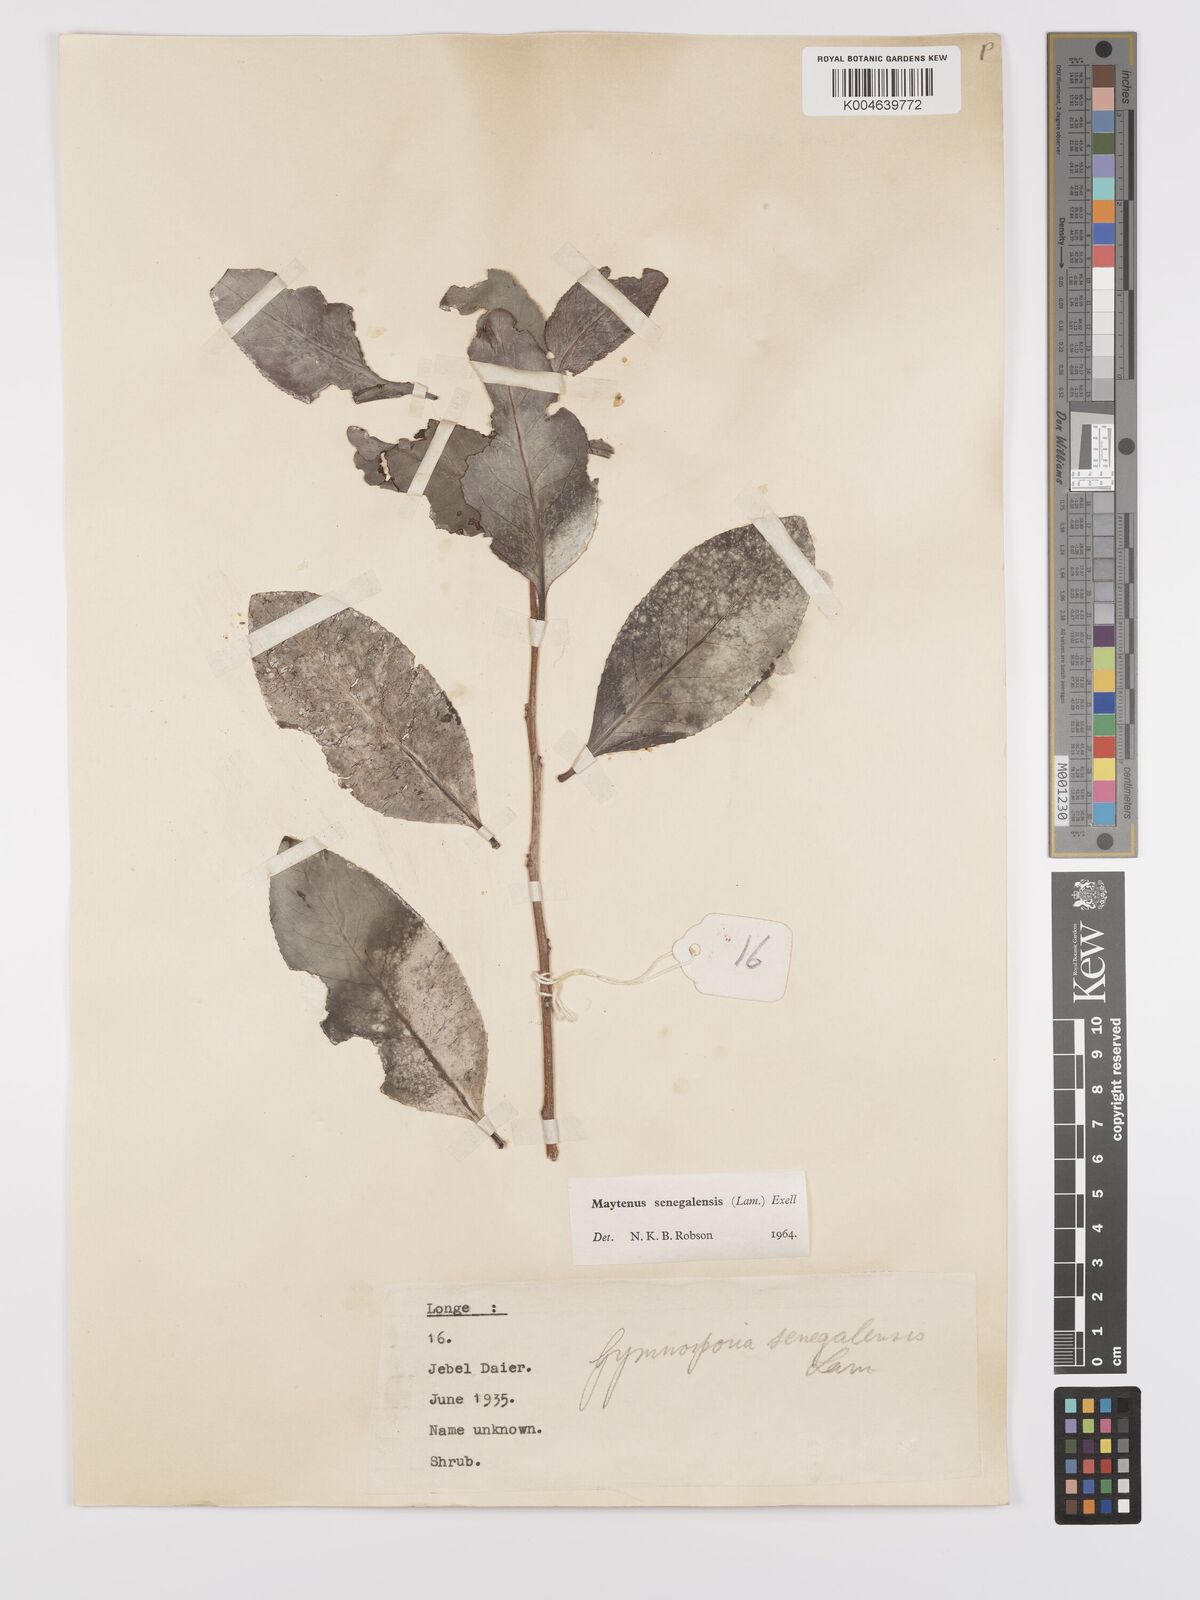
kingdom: Plantae
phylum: Tracheophyta
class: Magnoliopsida
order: Celastrales
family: Celastraceae
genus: Gymnosporia
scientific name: Gymnosporia senegalensis
